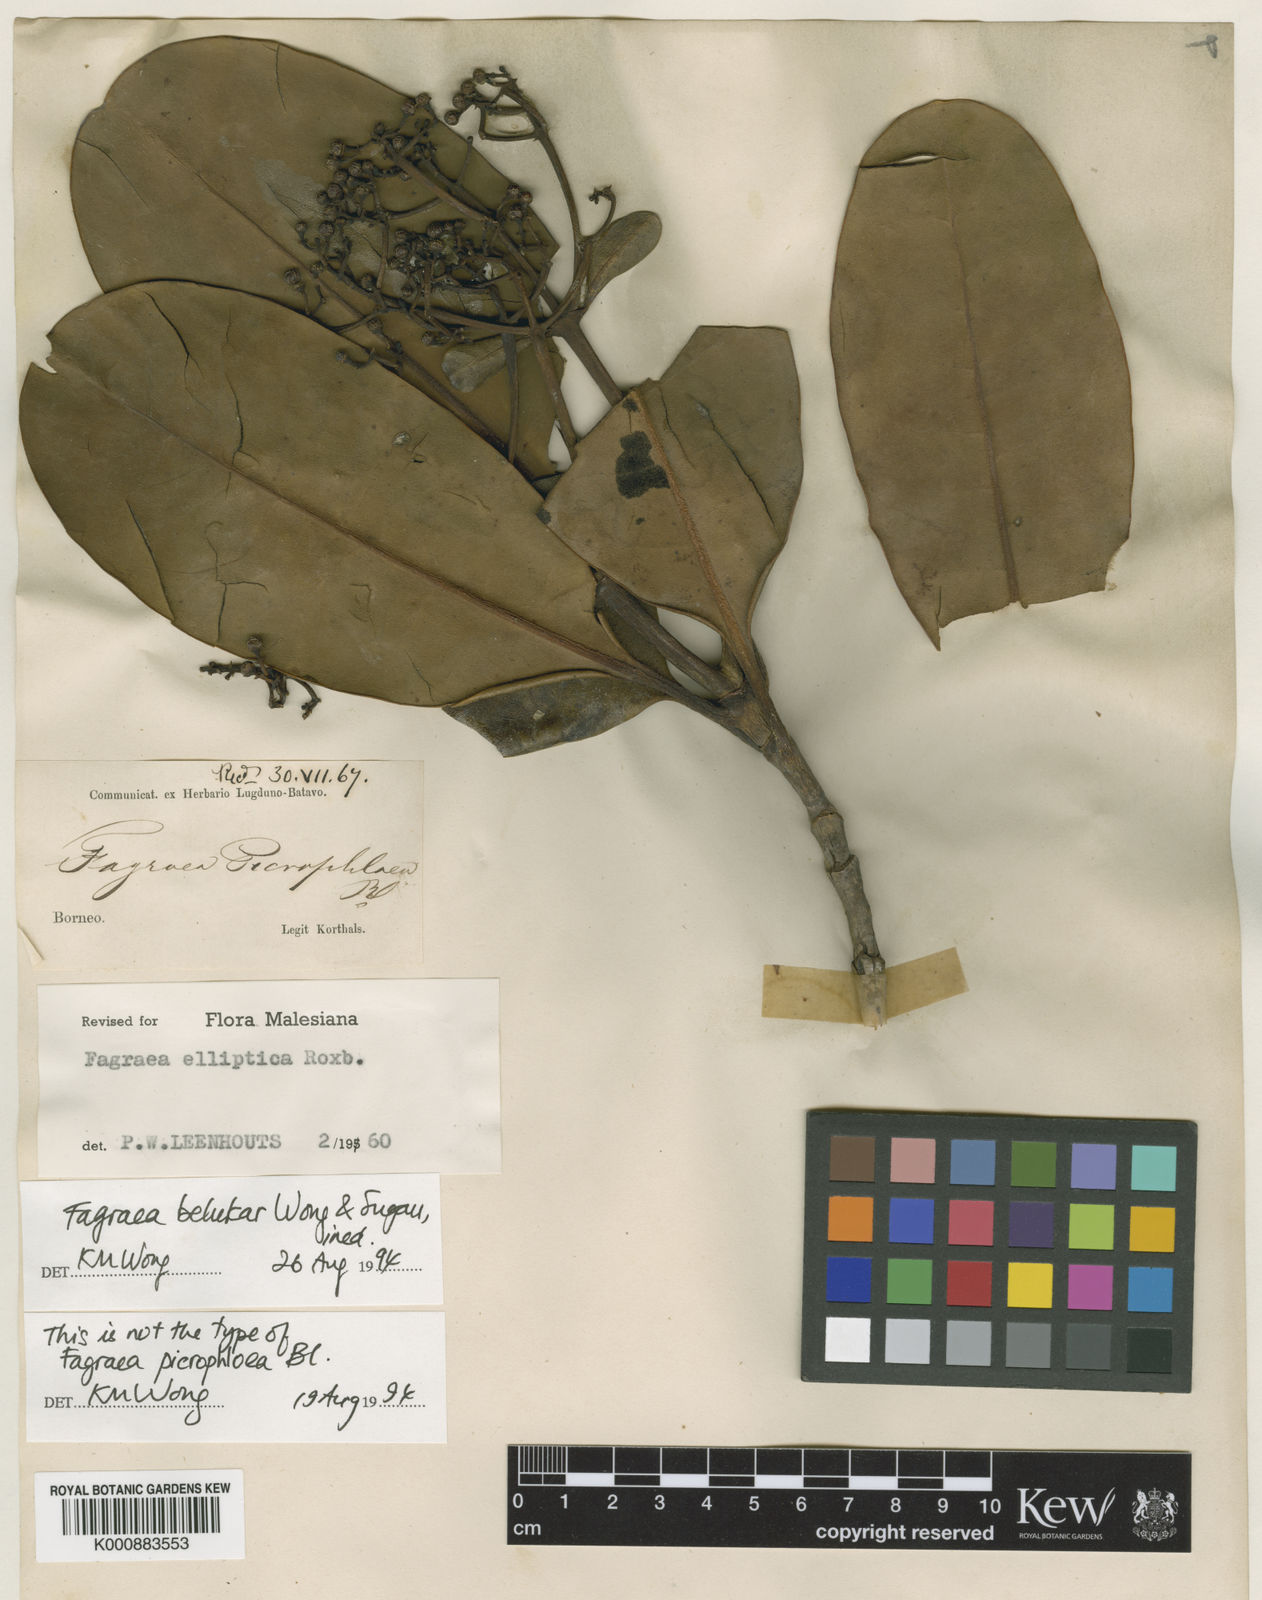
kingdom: Plantae
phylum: Tracheophyta
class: Magnoliopsida
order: Gentianales
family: Gentianaceae
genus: Picrophloeus
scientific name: Picrophloeus
